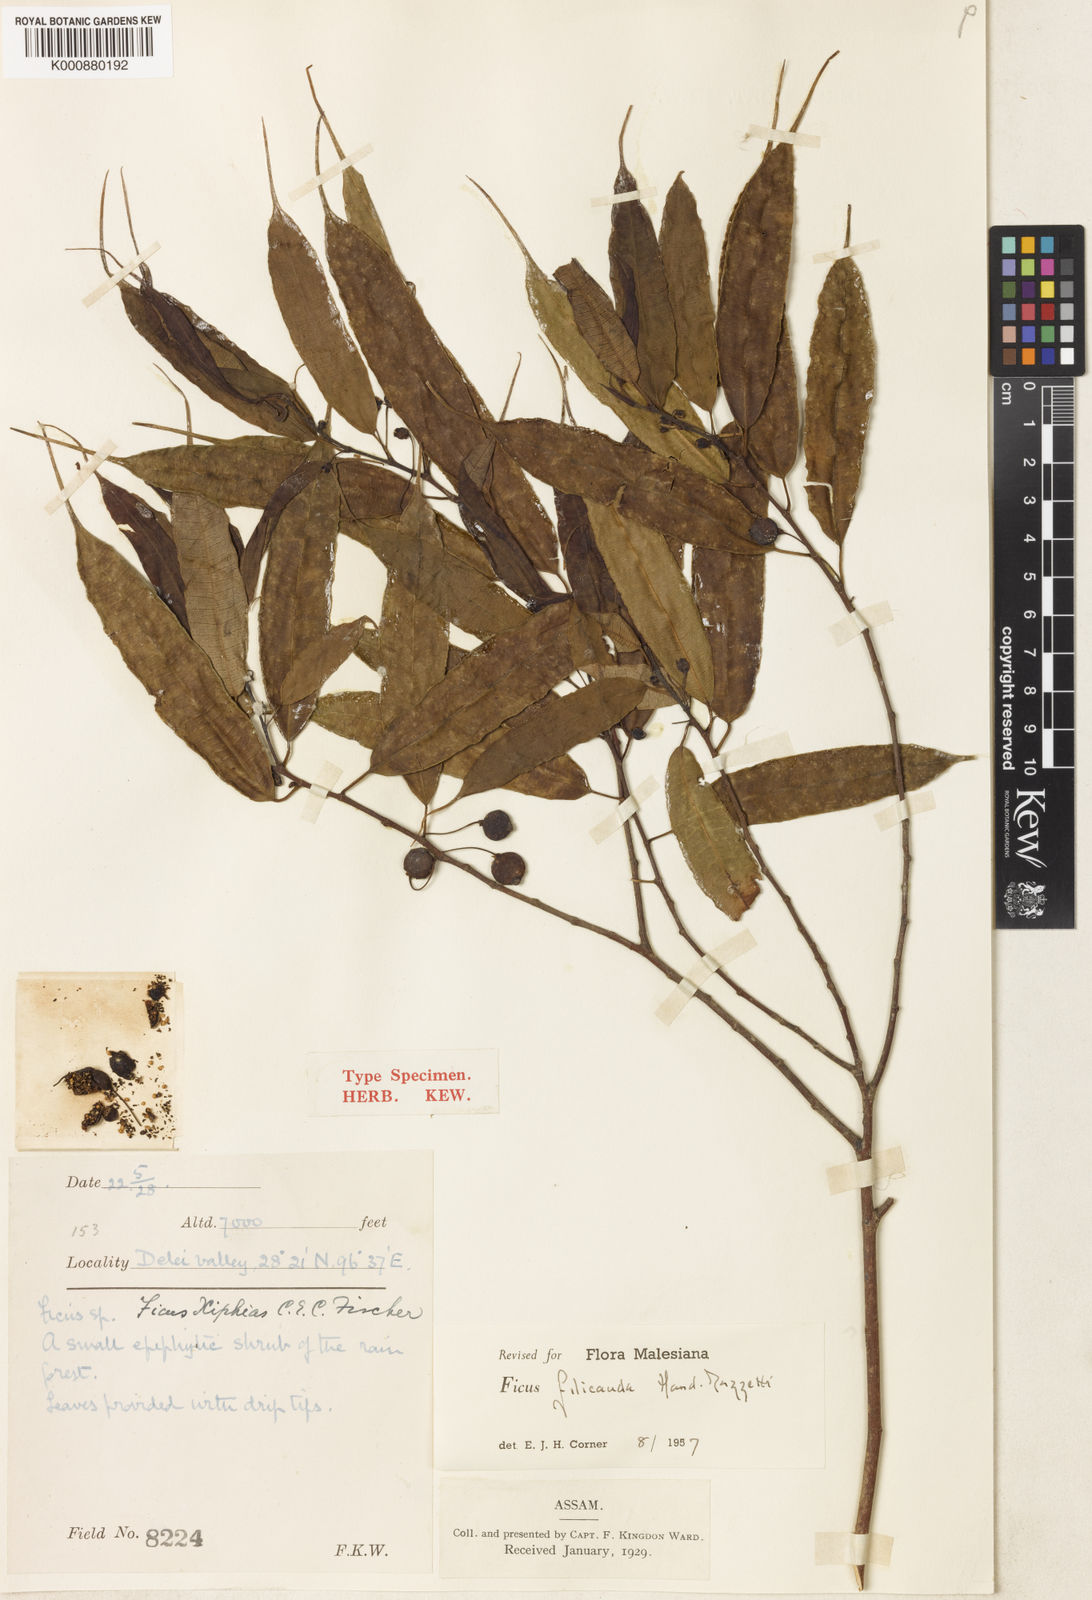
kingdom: Plantae
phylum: Tracheophyta
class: Magnoliopsida
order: Rosales
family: Moraceae
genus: Ficus
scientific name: Ficus filicauda
